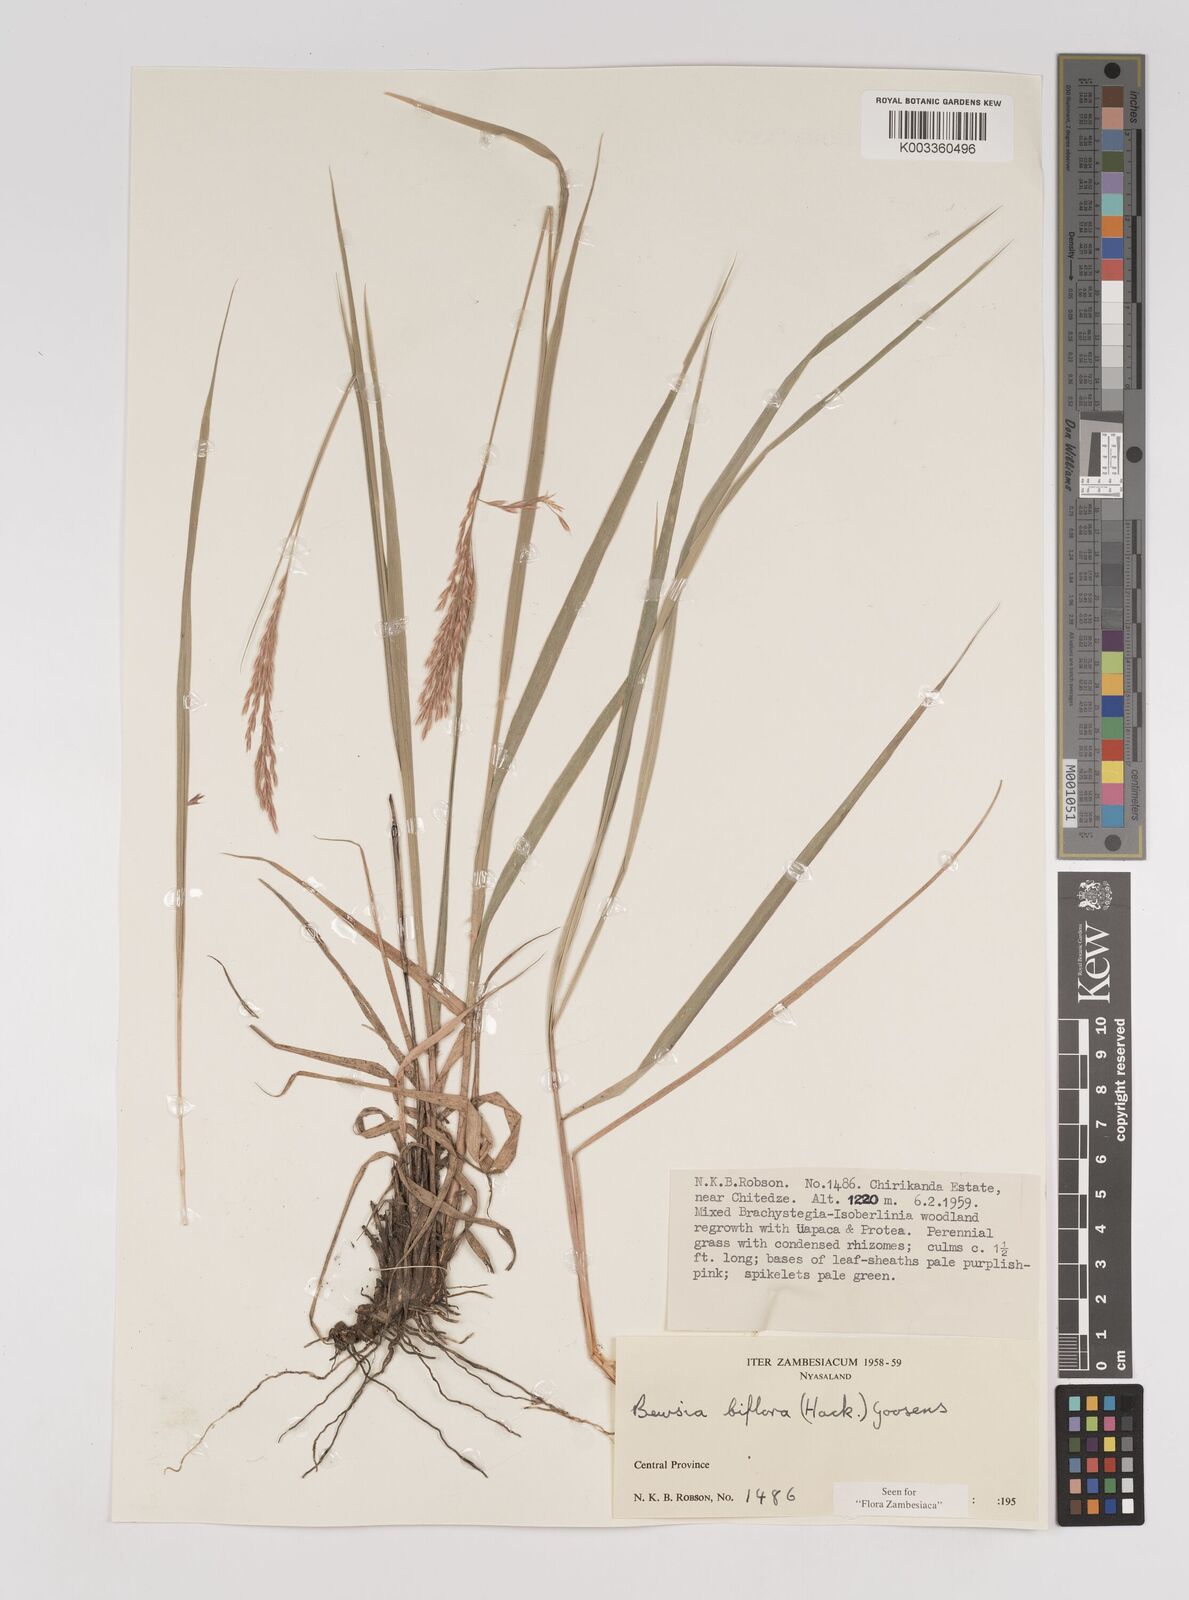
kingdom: Plantae
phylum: Tracheophyta
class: Liliopsida
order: Poales
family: Poaceae
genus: Bewsia
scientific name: Bewsia biflora
